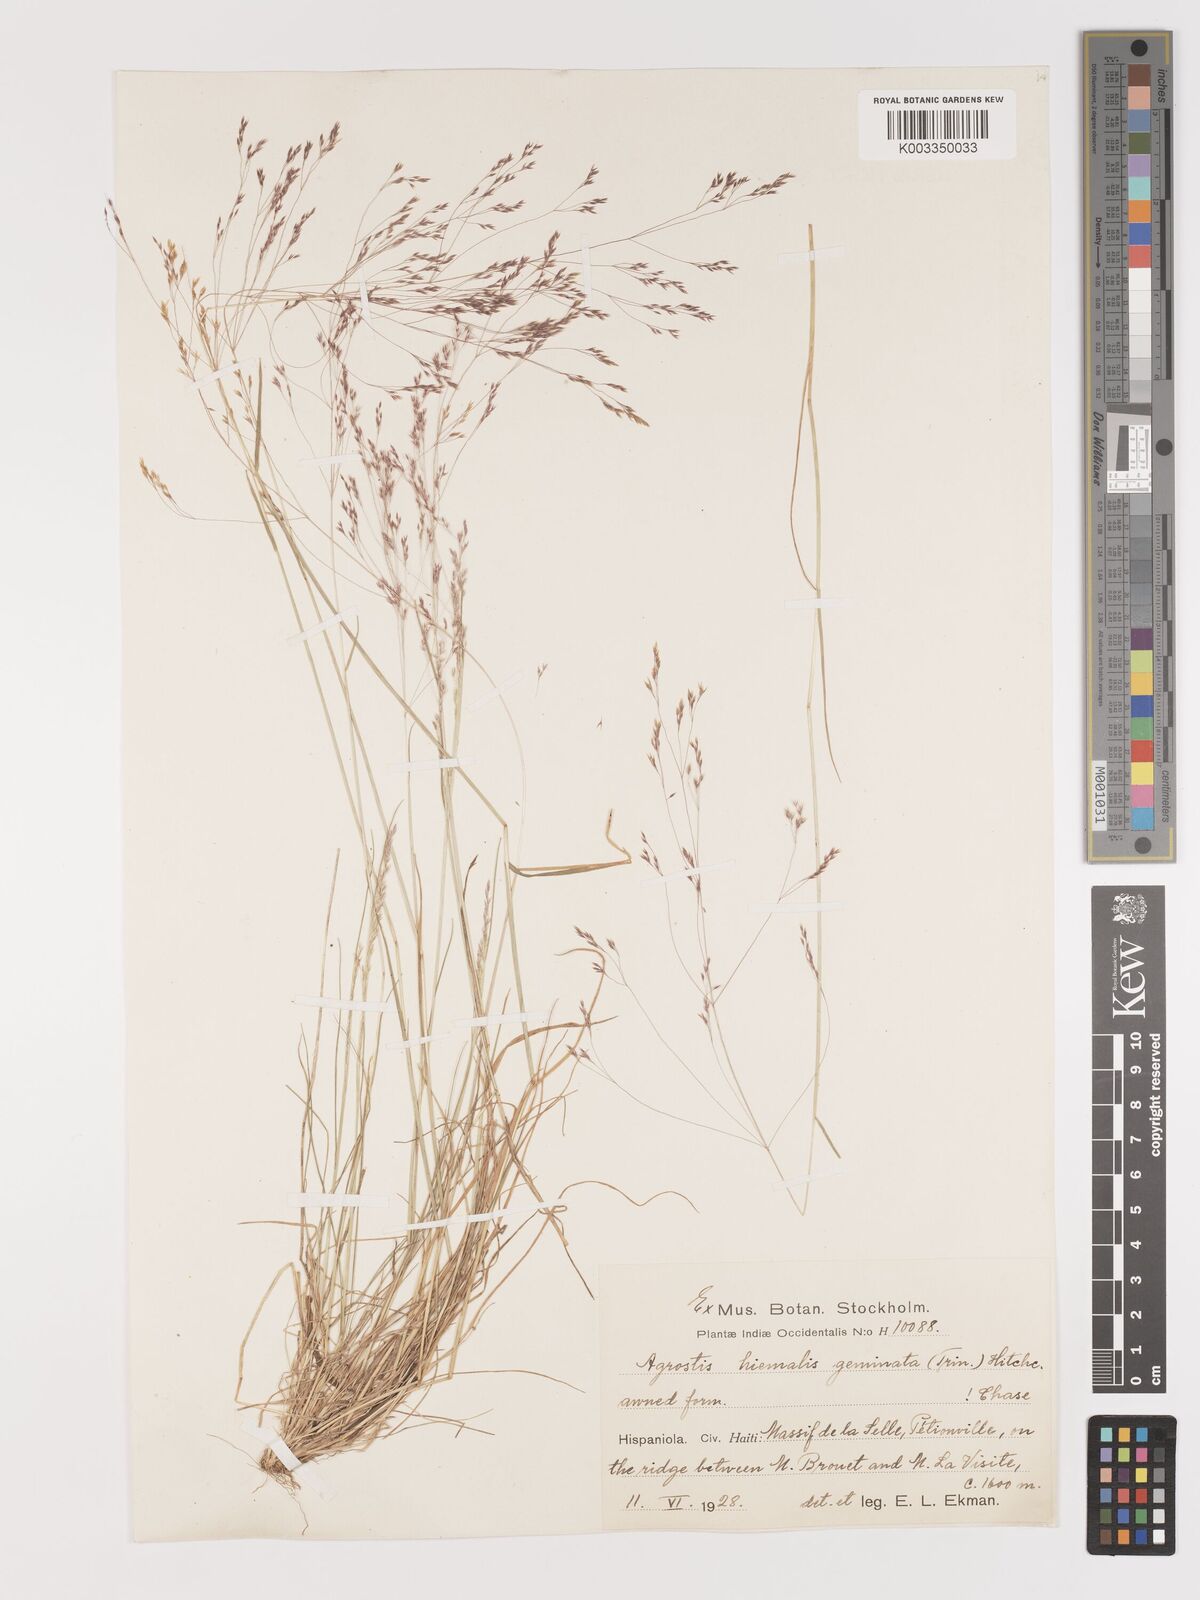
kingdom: Plantae
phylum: Tracheophyta
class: Liliopsida
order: Poales
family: Poaceae
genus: Agrostis
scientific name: Agrostis hyemalis
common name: Small bent
